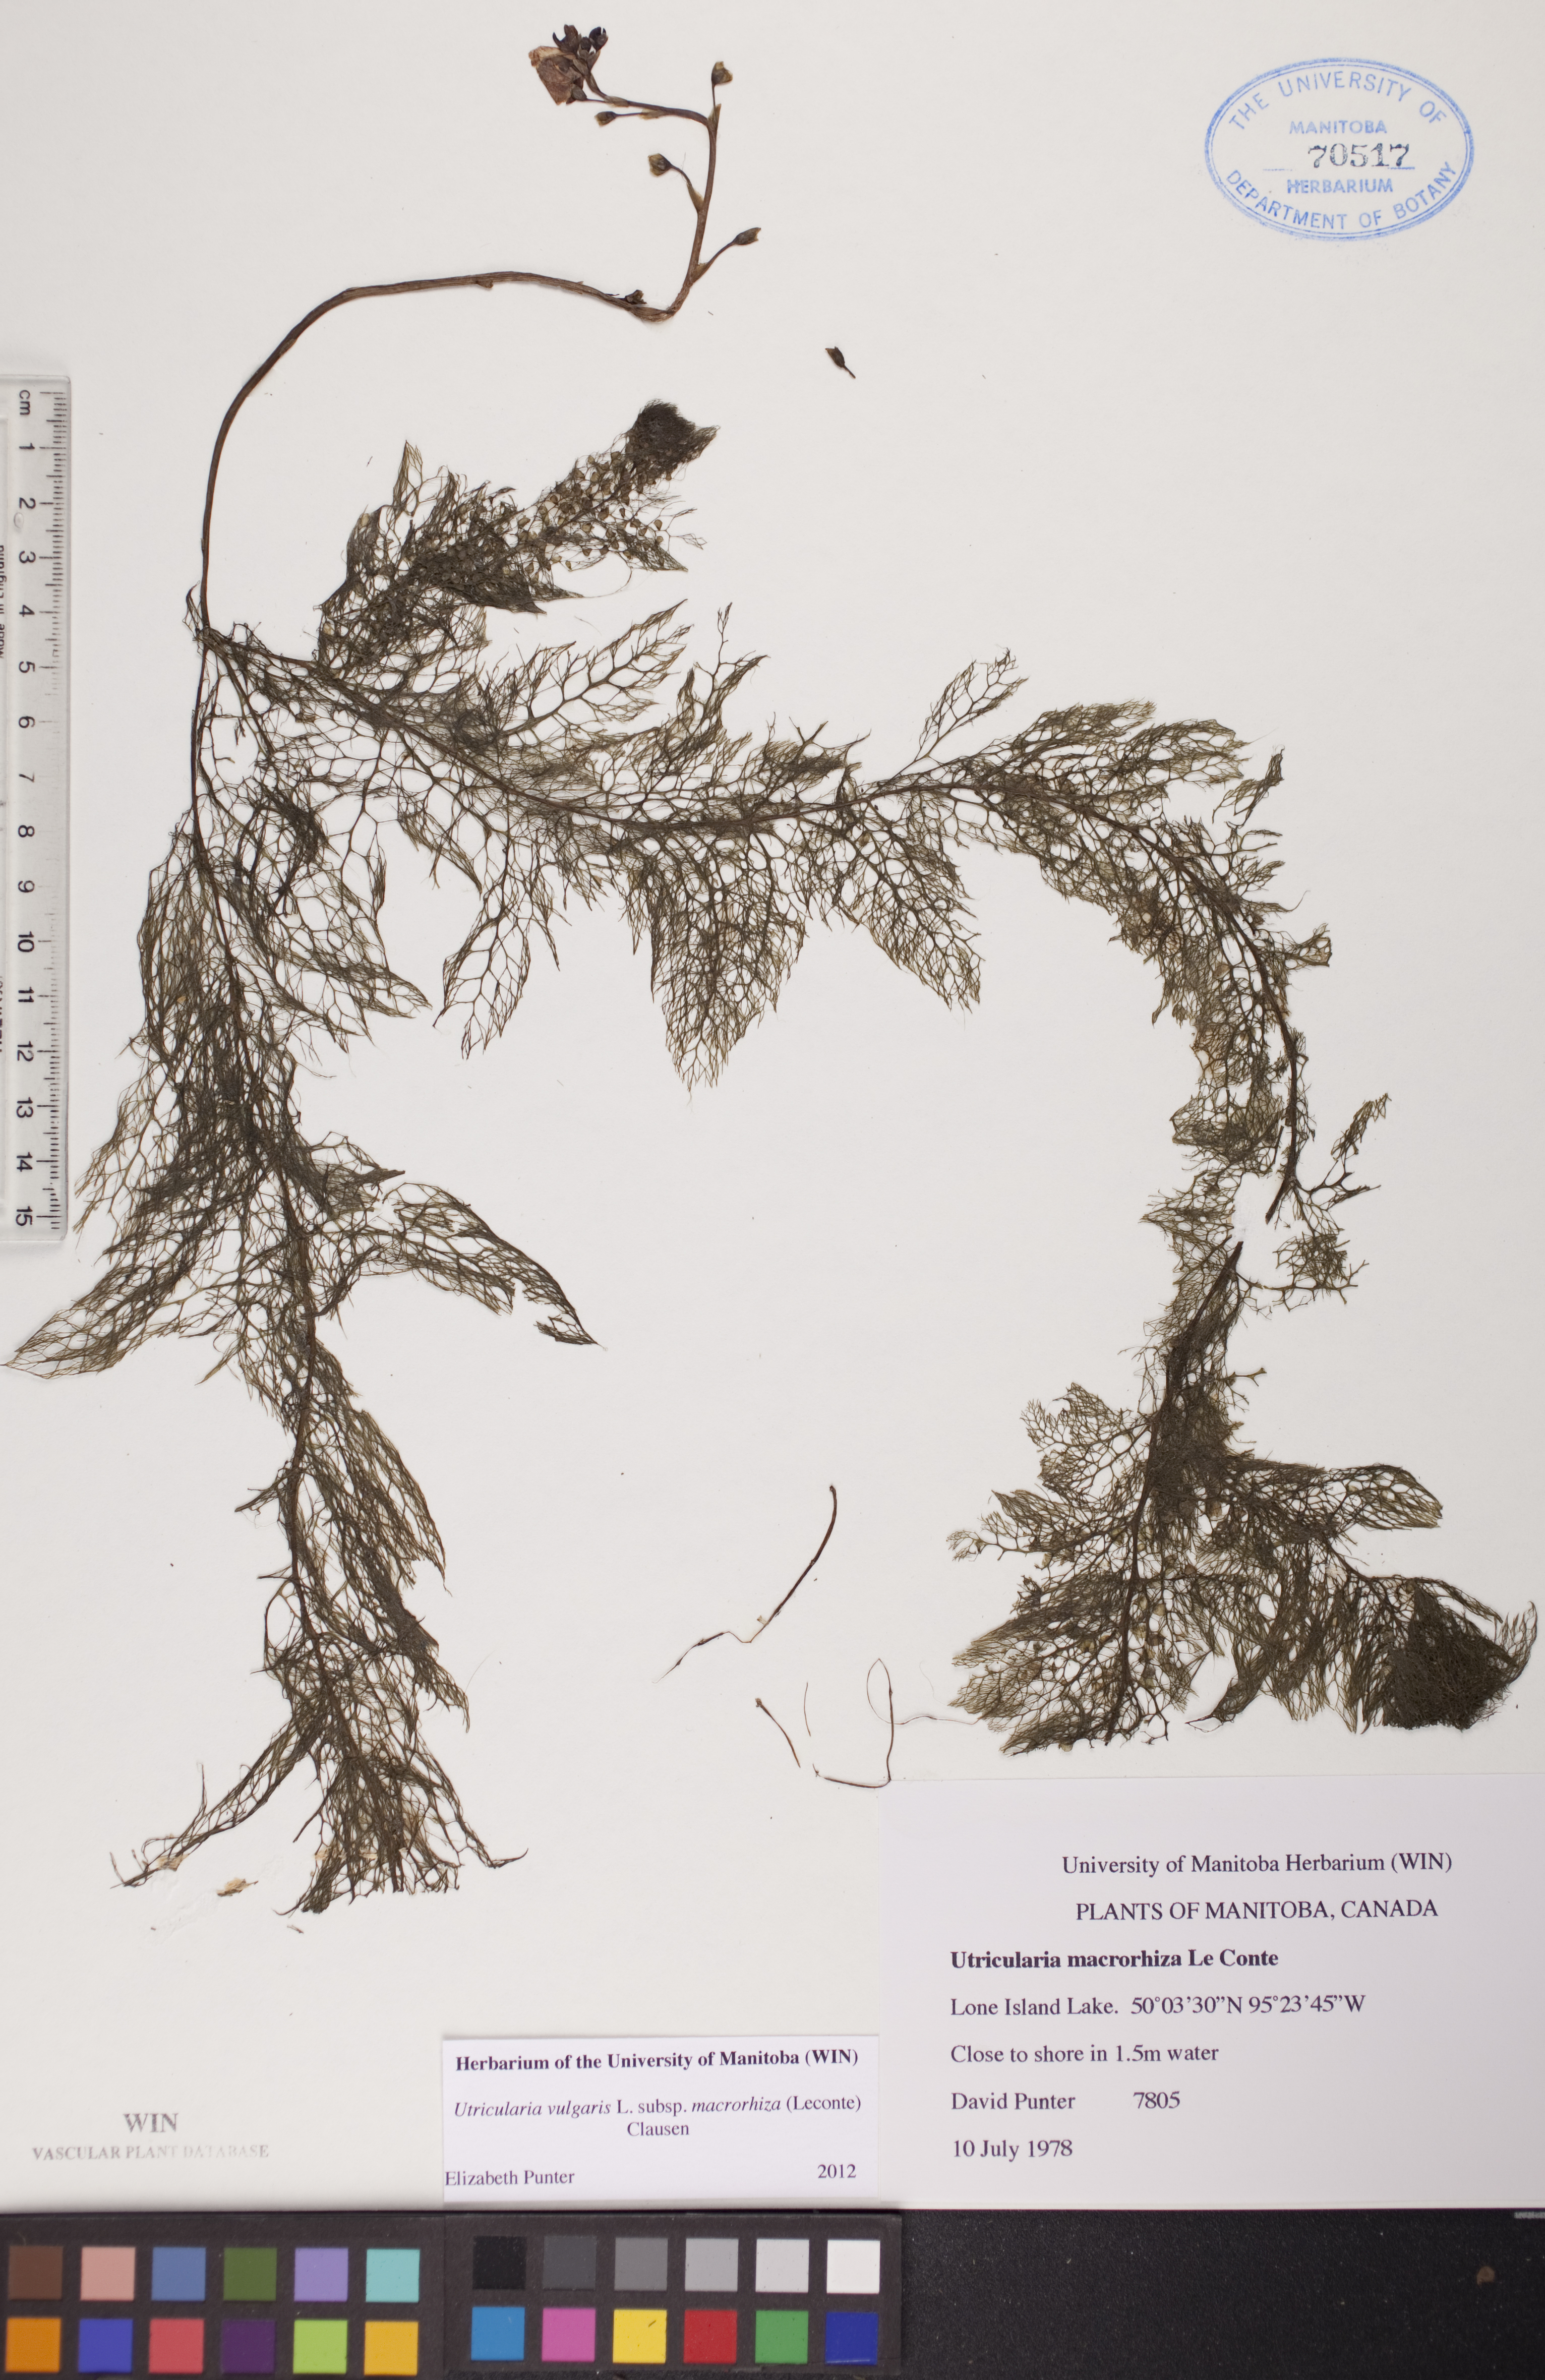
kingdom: Plantae
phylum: Tracheophyta
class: Magnoliopsida
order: Lamiales
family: Lentibulariaceae
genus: Utricularia
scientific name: Utricularia macrorhiza
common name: Common bladderwort
